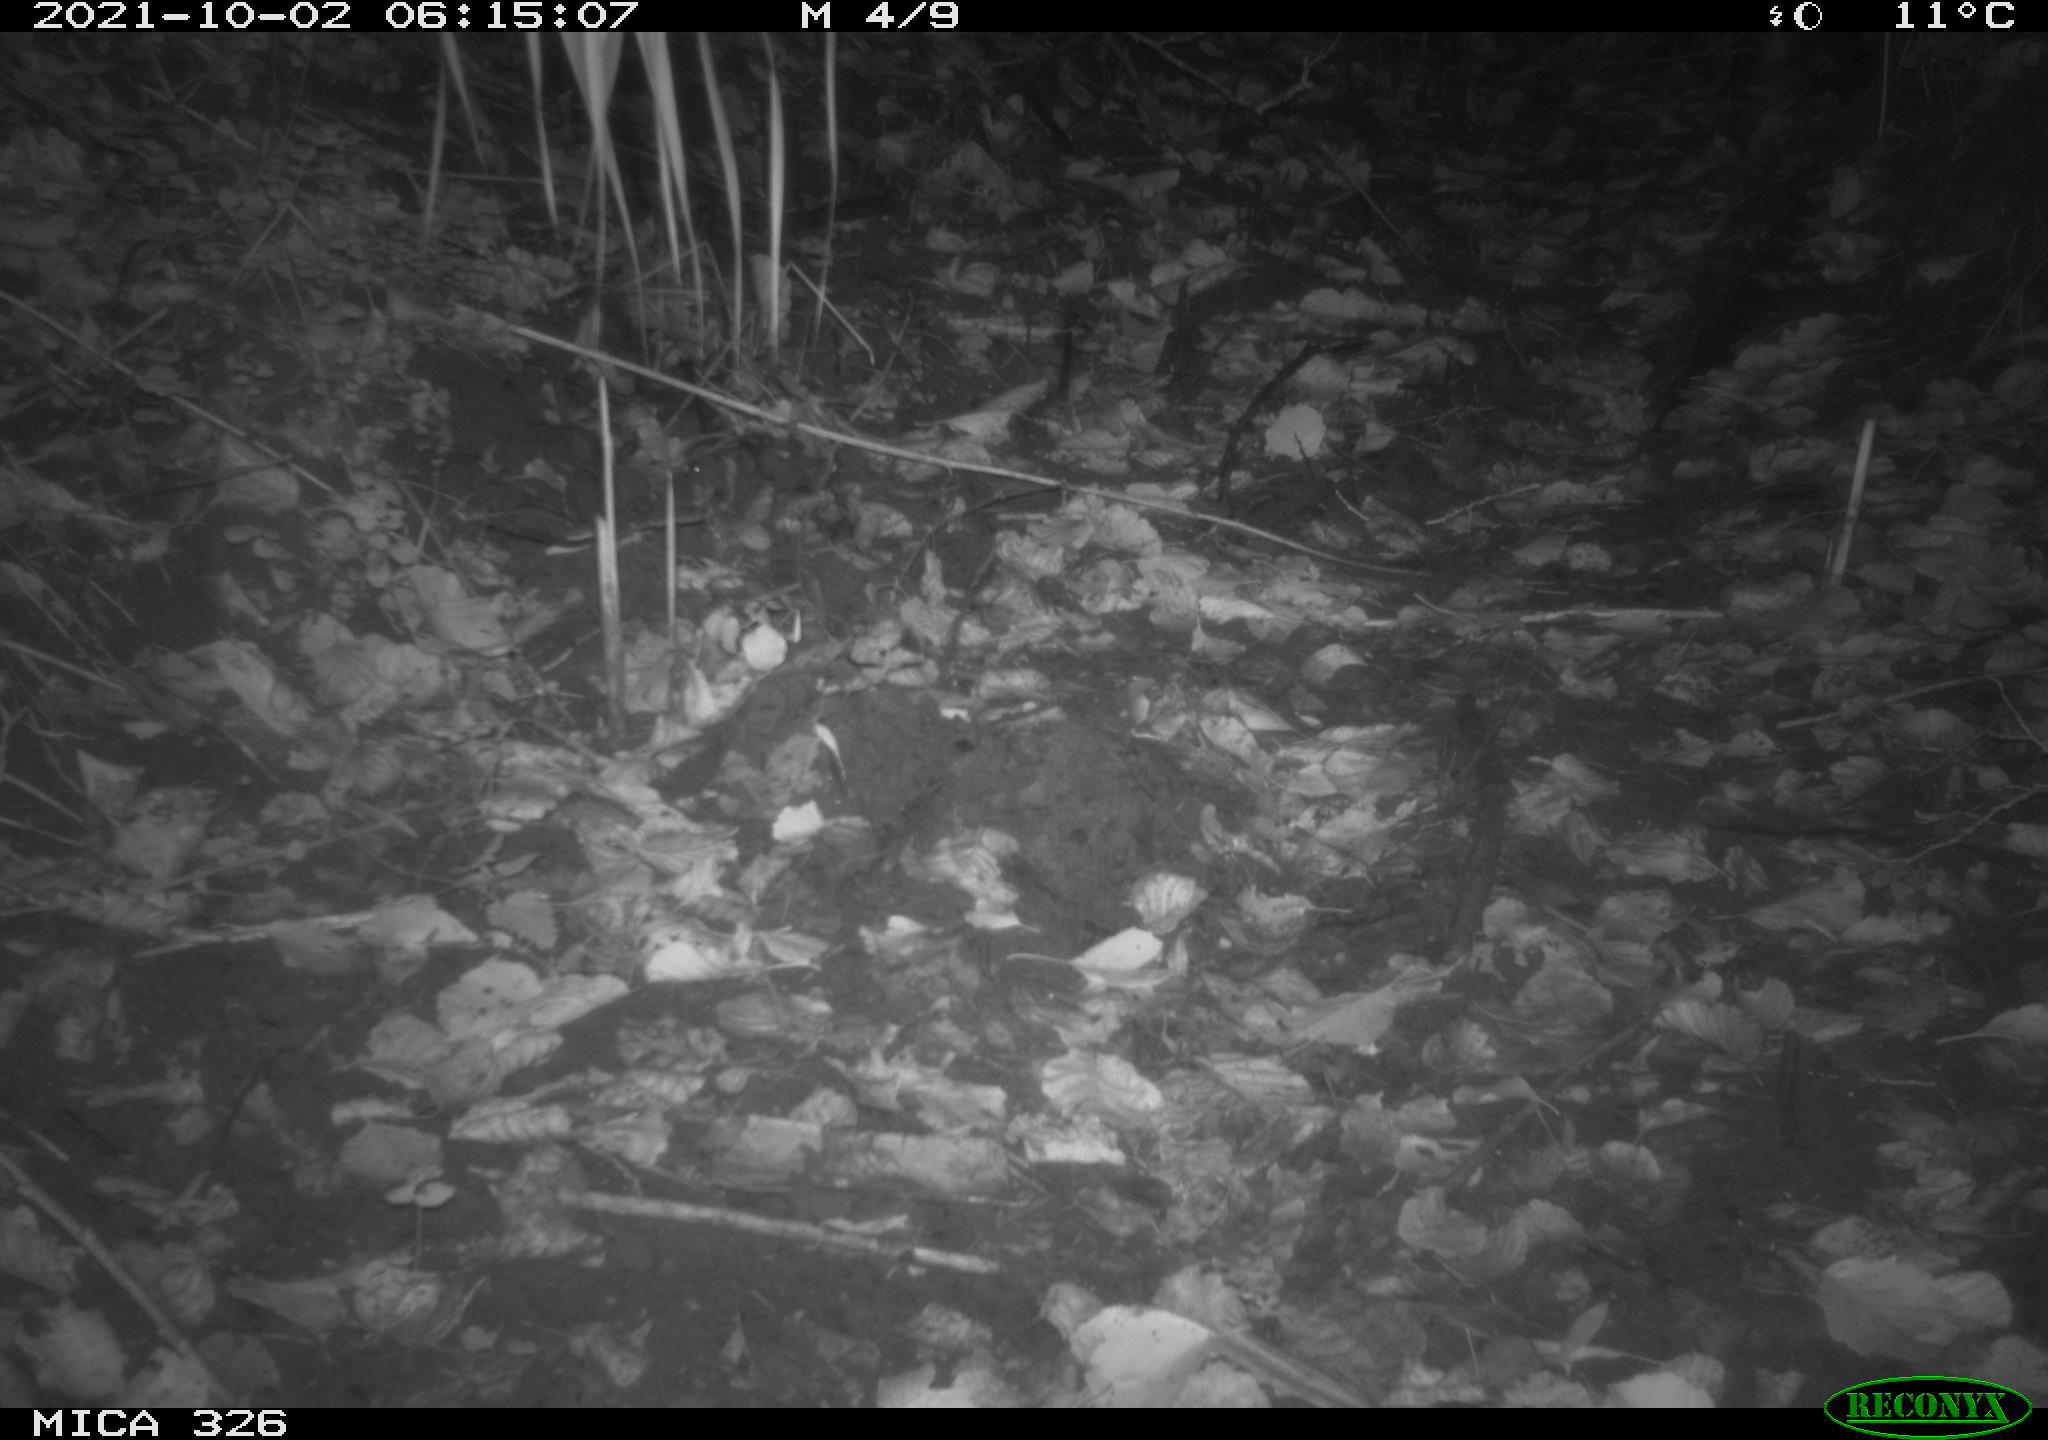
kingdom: Animalia
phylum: Chordata
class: Mammalia
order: Rodentia
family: Muridae
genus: Rattus
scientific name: Rattus norvegicus
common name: Brown rat
